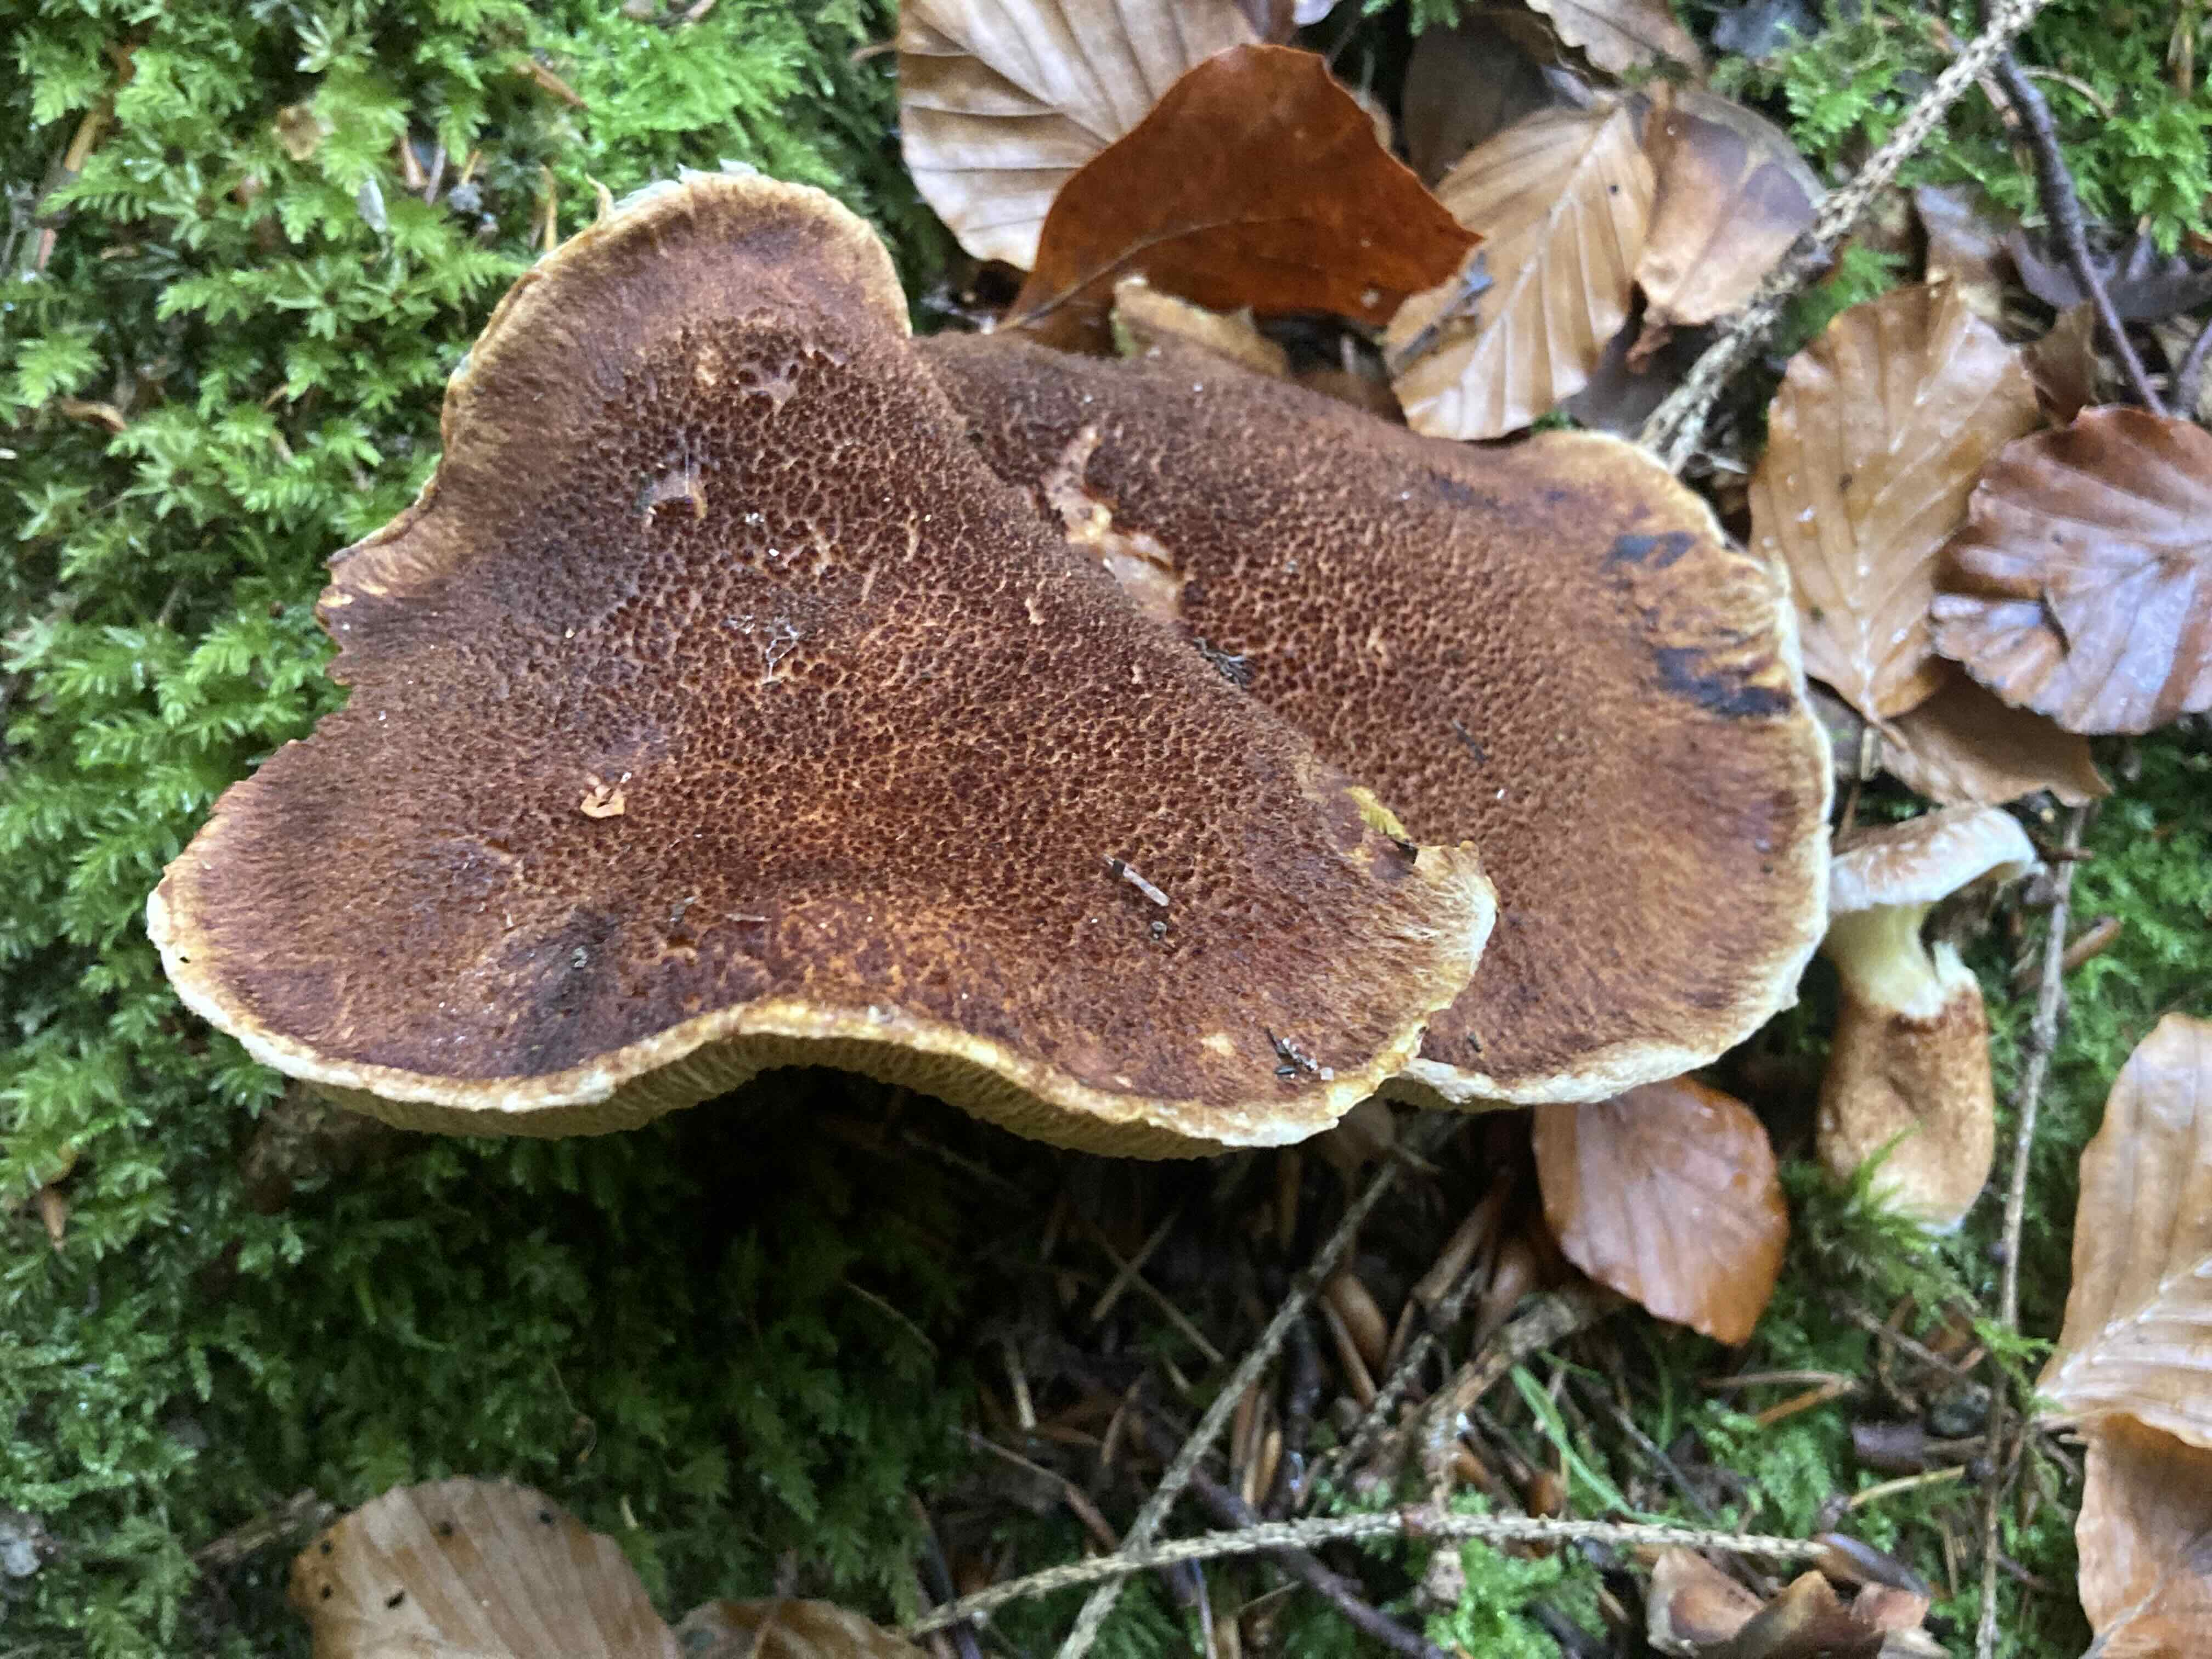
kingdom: Fungi
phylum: Basidiomycota
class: Agaricomycetes
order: Boletales
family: Suillaceae
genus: Suillus
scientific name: Suillus cavipes
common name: hulstokket slimrørhat
